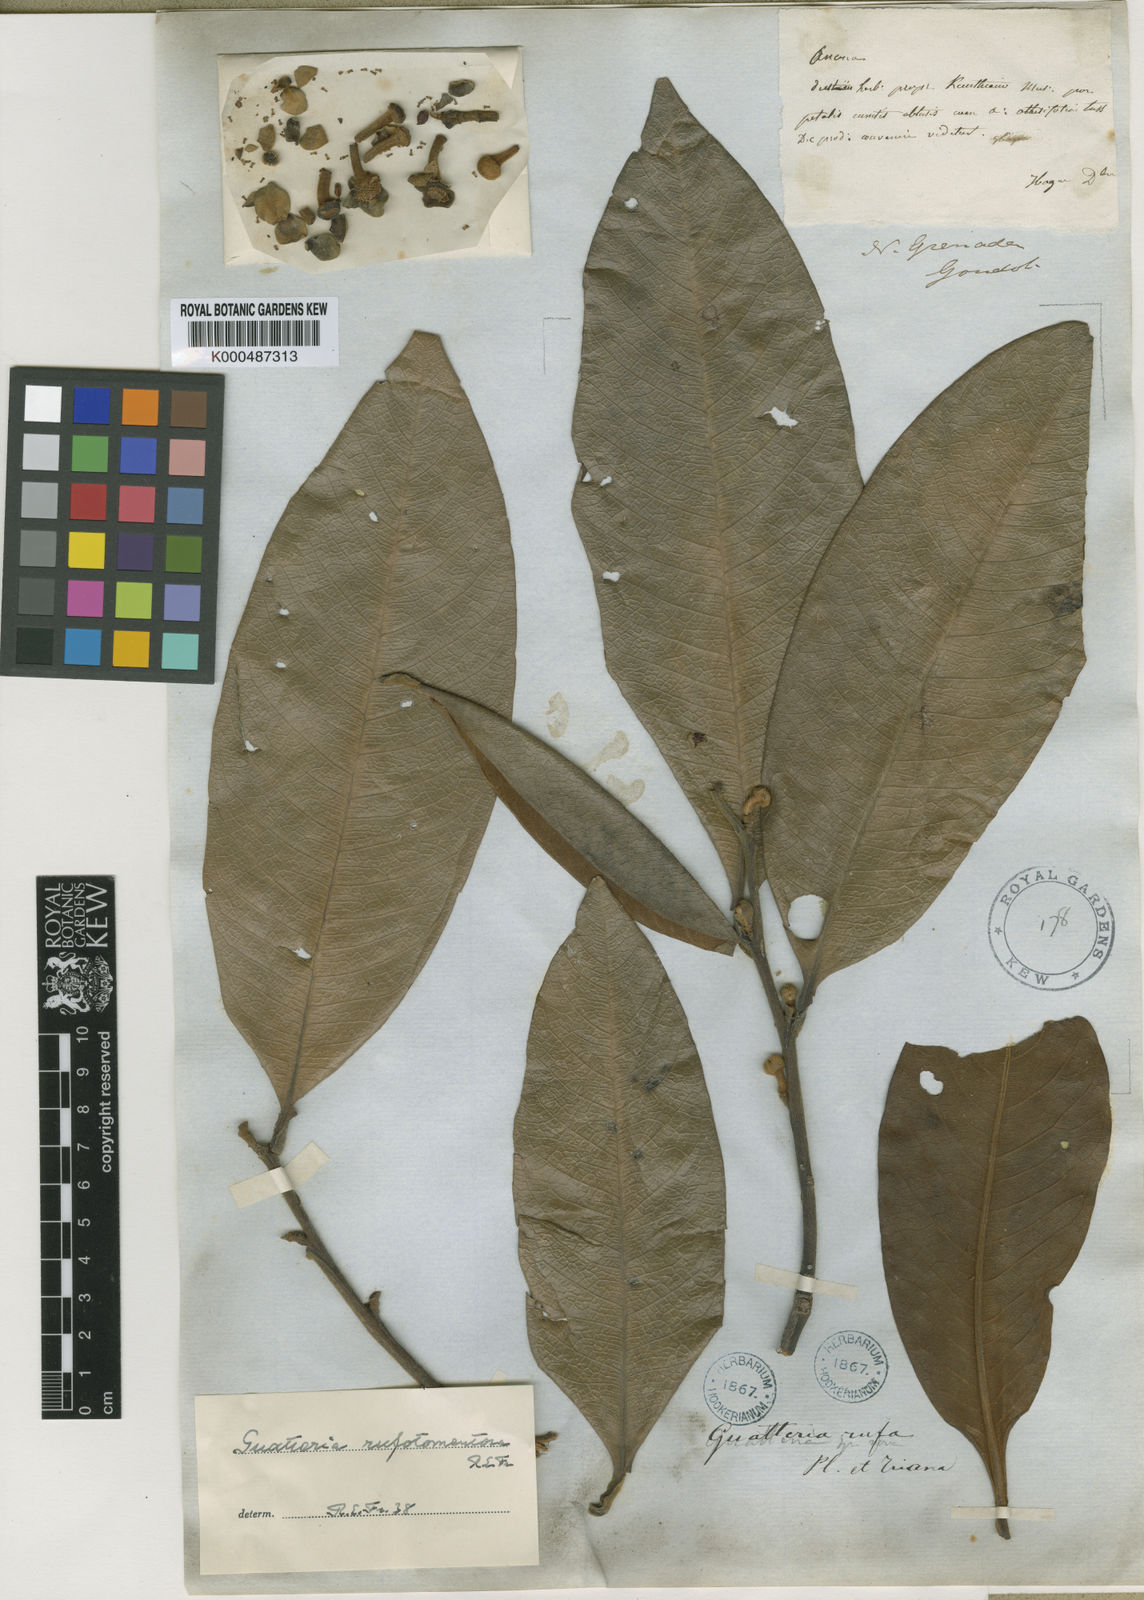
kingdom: Plantae
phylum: Tracheophyta
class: Magnoliopsida
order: Magnoliales
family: Annonaceae
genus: Guatteria
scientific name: Guatteria rufotomentosa
